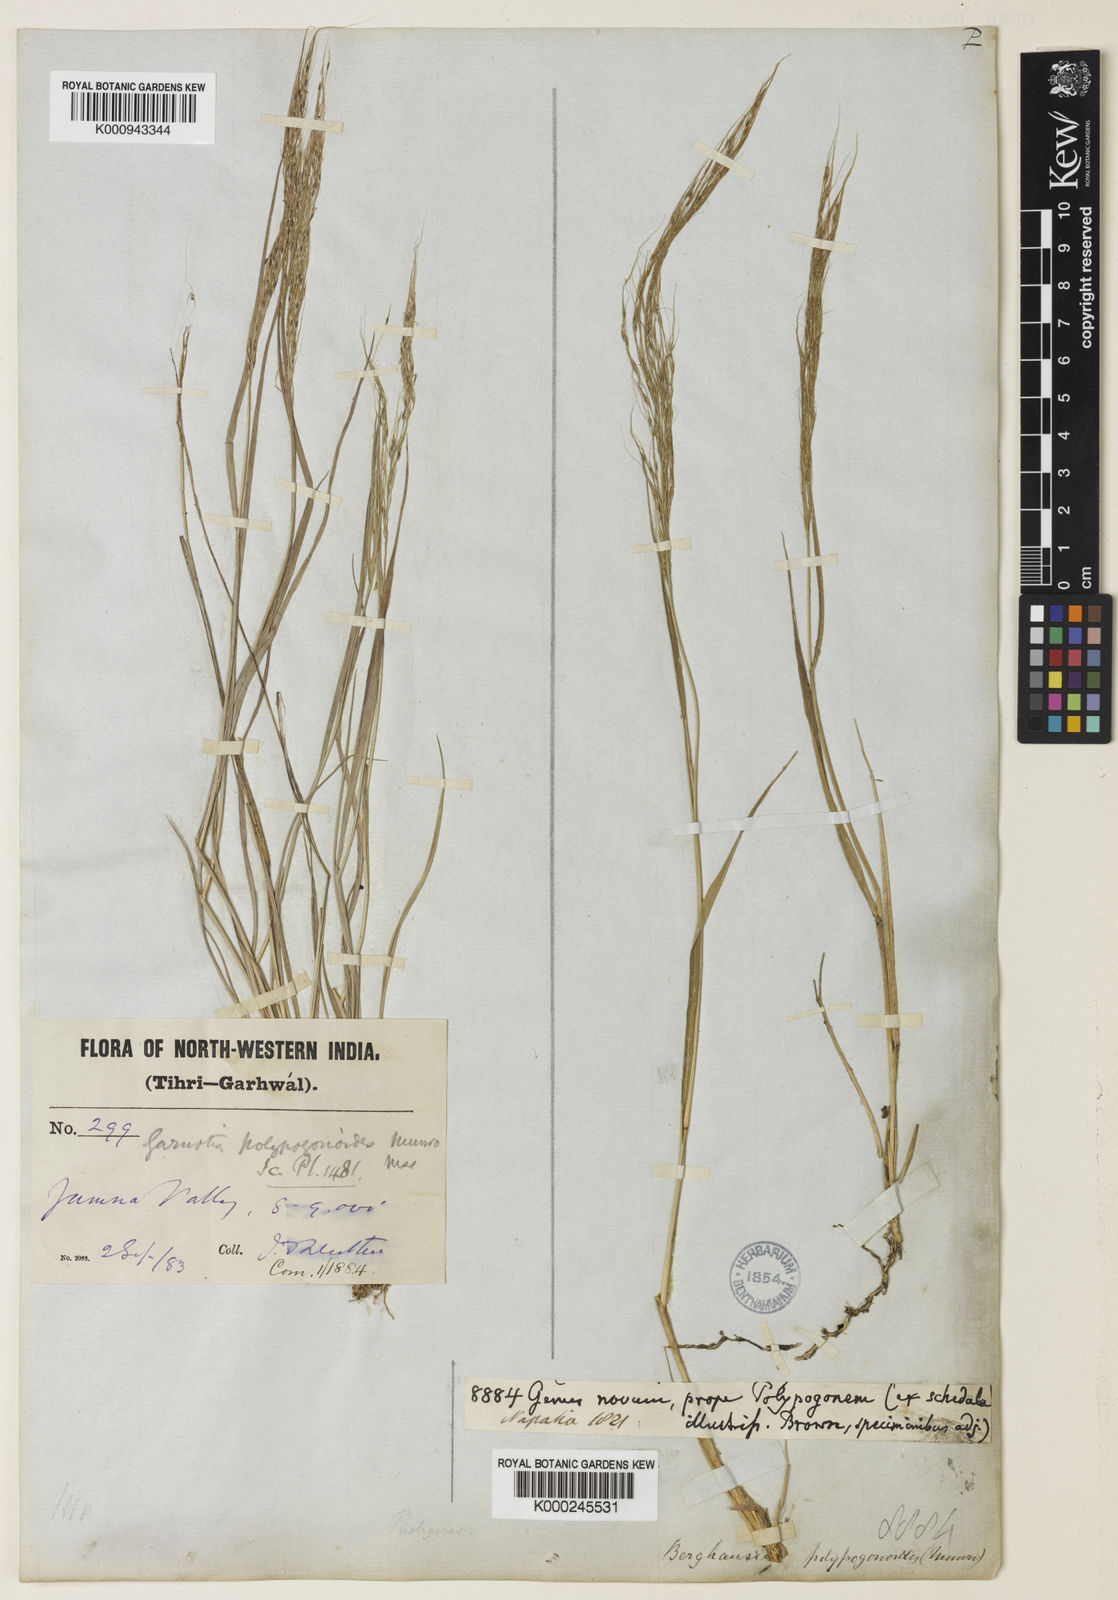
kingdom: Plantae
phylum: Tracheophyta
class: Liliopsida
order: Poales
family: Poaceae
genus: Garnotia
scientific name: Garnotia emodi
